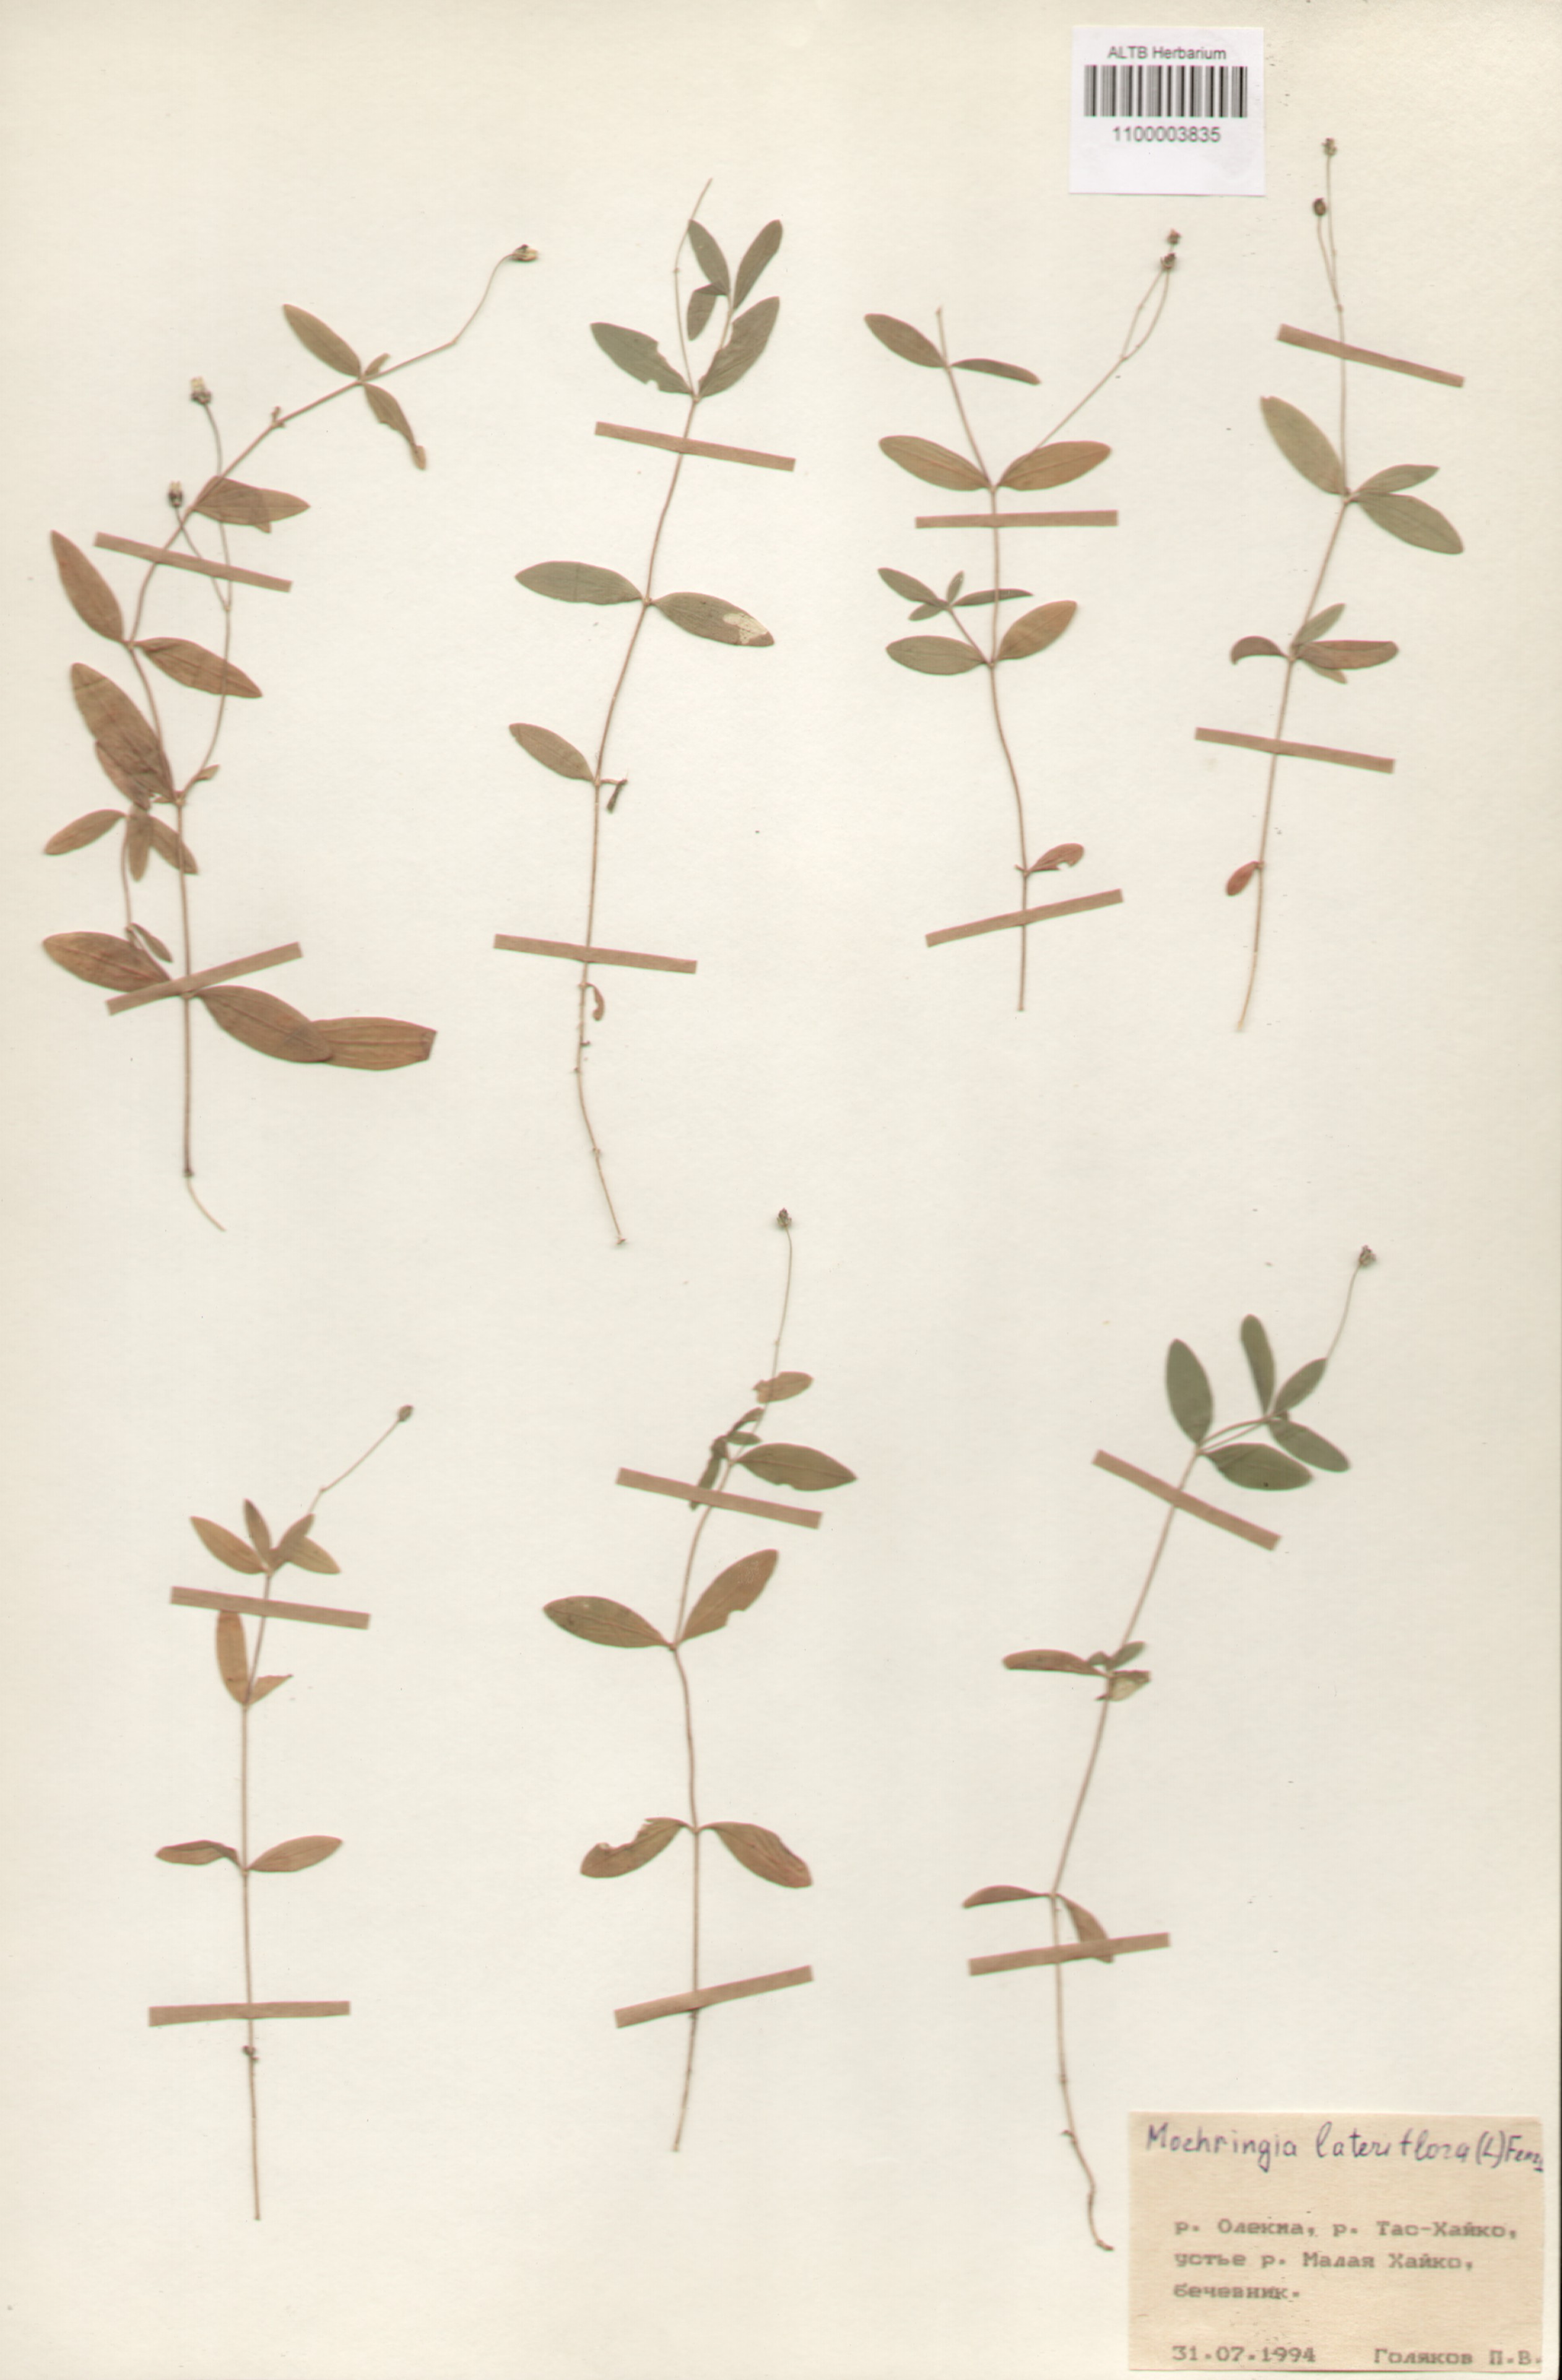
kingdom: Plantae
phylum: Tracheophyta
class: Magnoliopsida
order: Caryophyllales
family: Caryophyllaceae
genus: Moehringia
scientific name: Moehringia lateriflora
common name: Blunt-leaved sandwort
